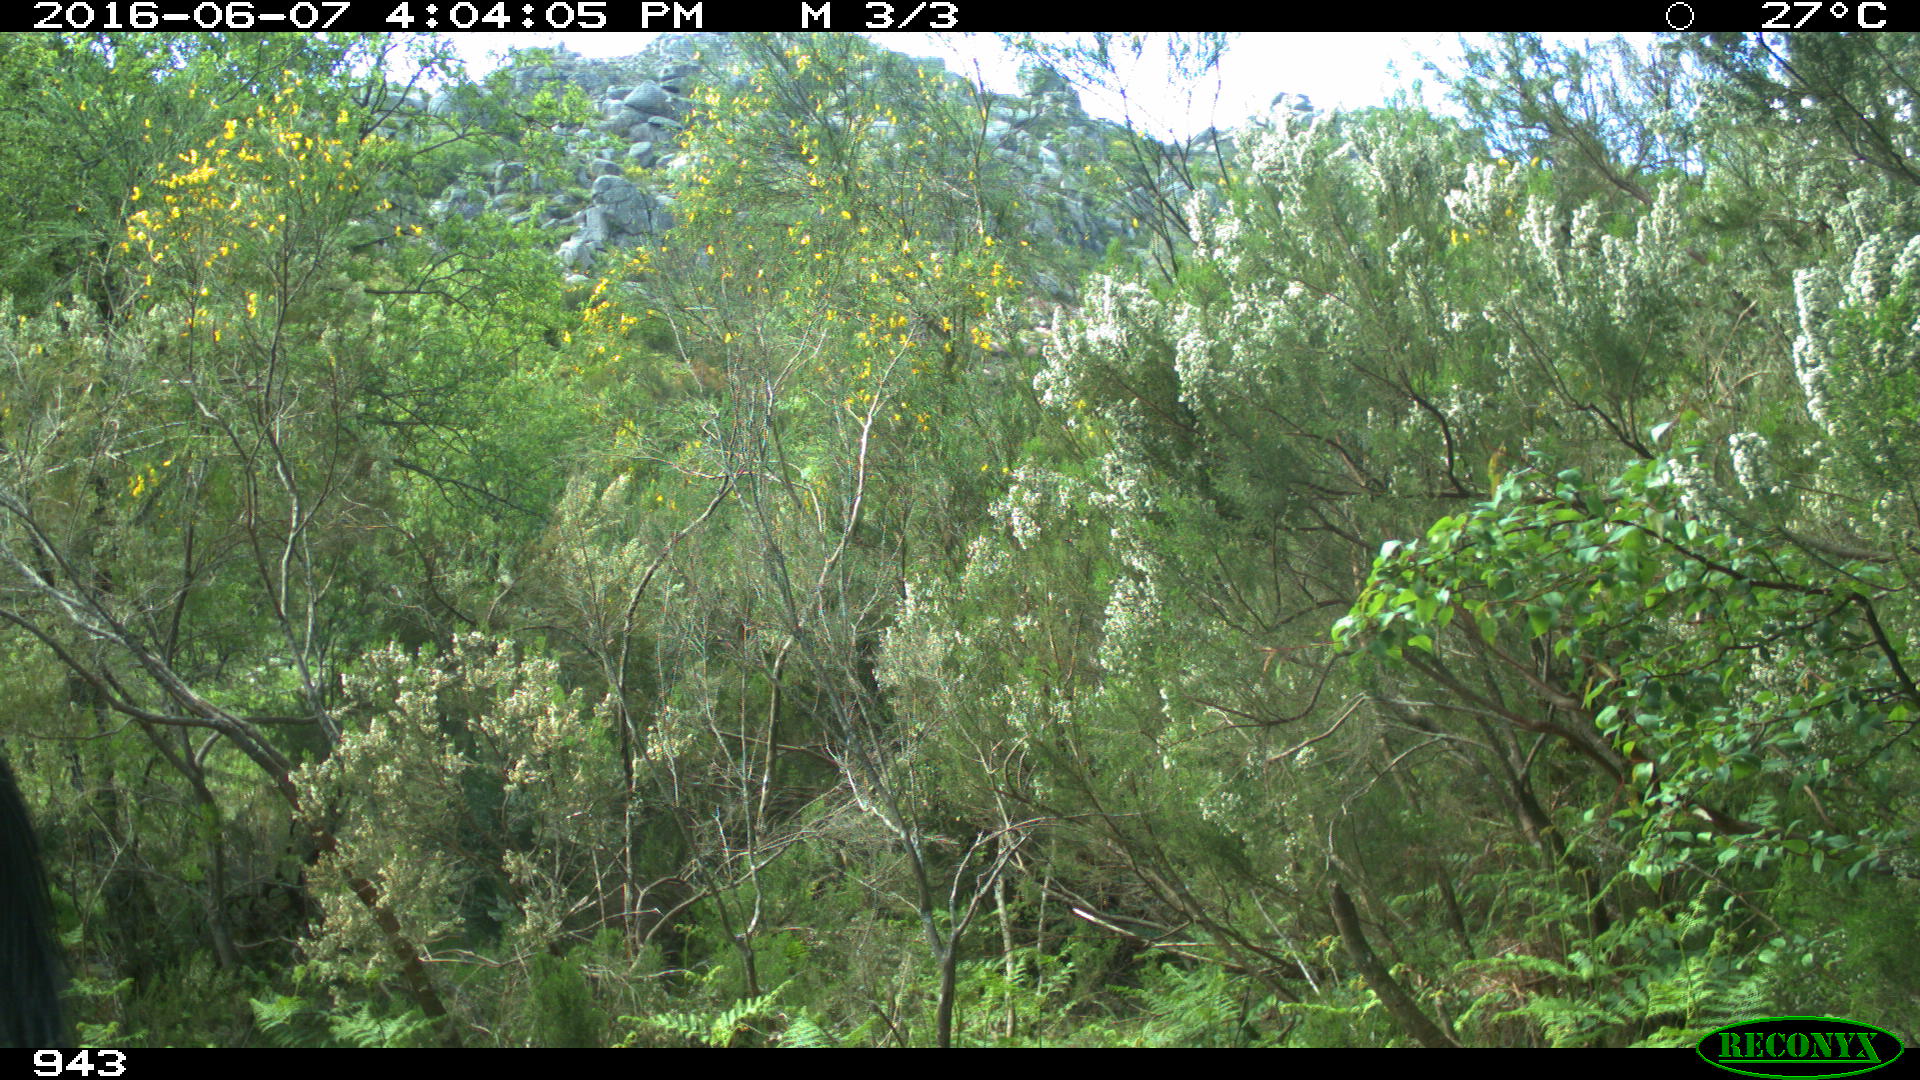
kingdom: Animalia
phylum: Chordata
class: Mammalia
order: Perissodactyla
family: Equidae
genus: Equus
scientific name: Equus caballus
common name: Horse
